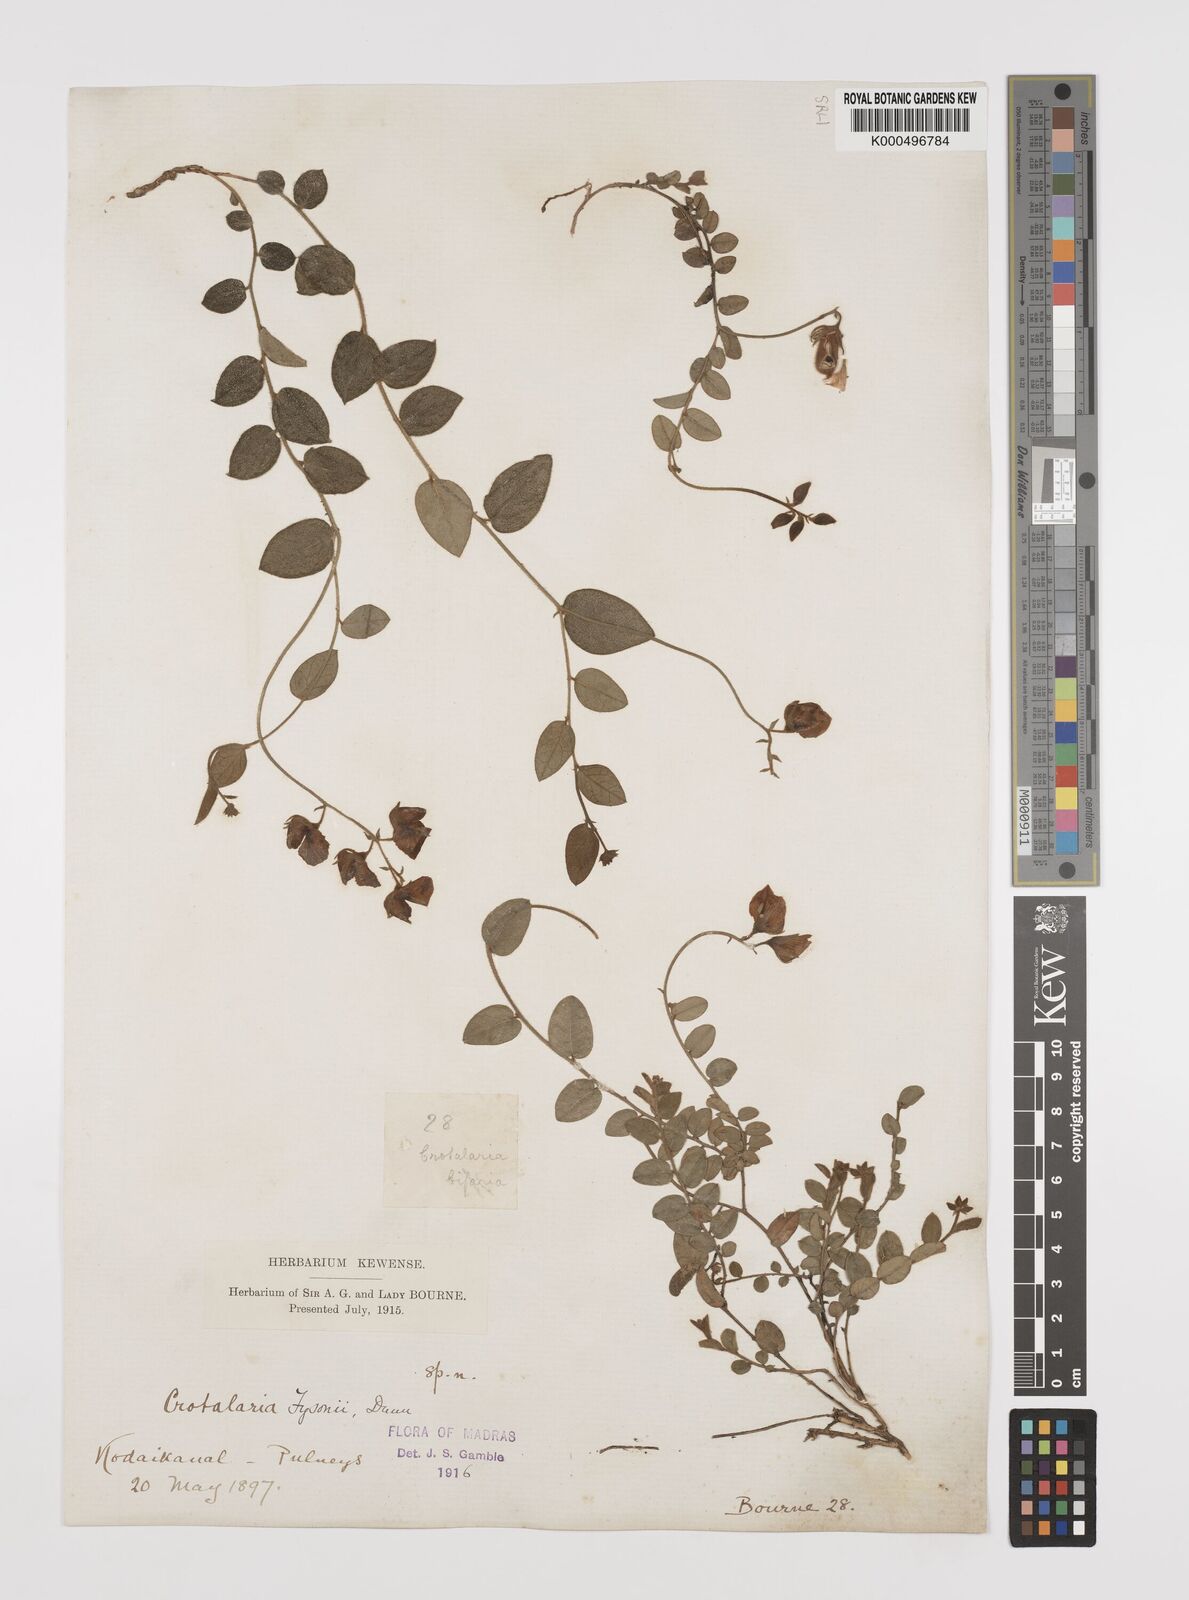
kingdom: Plantae
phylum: Tracheophyta
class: Magnoliopsida
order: Fabales
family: Fabaceae
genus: Crotalaria
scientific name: Crotalaria fysonii
